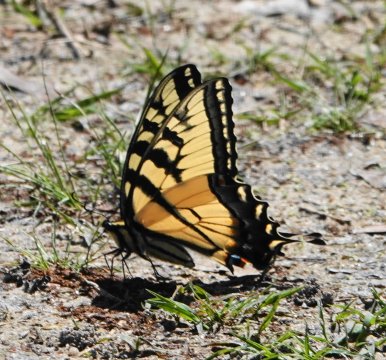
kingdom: Animalia
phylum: Arthropoda
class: Insecta
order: Lepidoptera
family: Papilionidae
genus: Pterourus
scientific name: Pterourus glaucus
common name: Eastern Tiger Swallowtail
